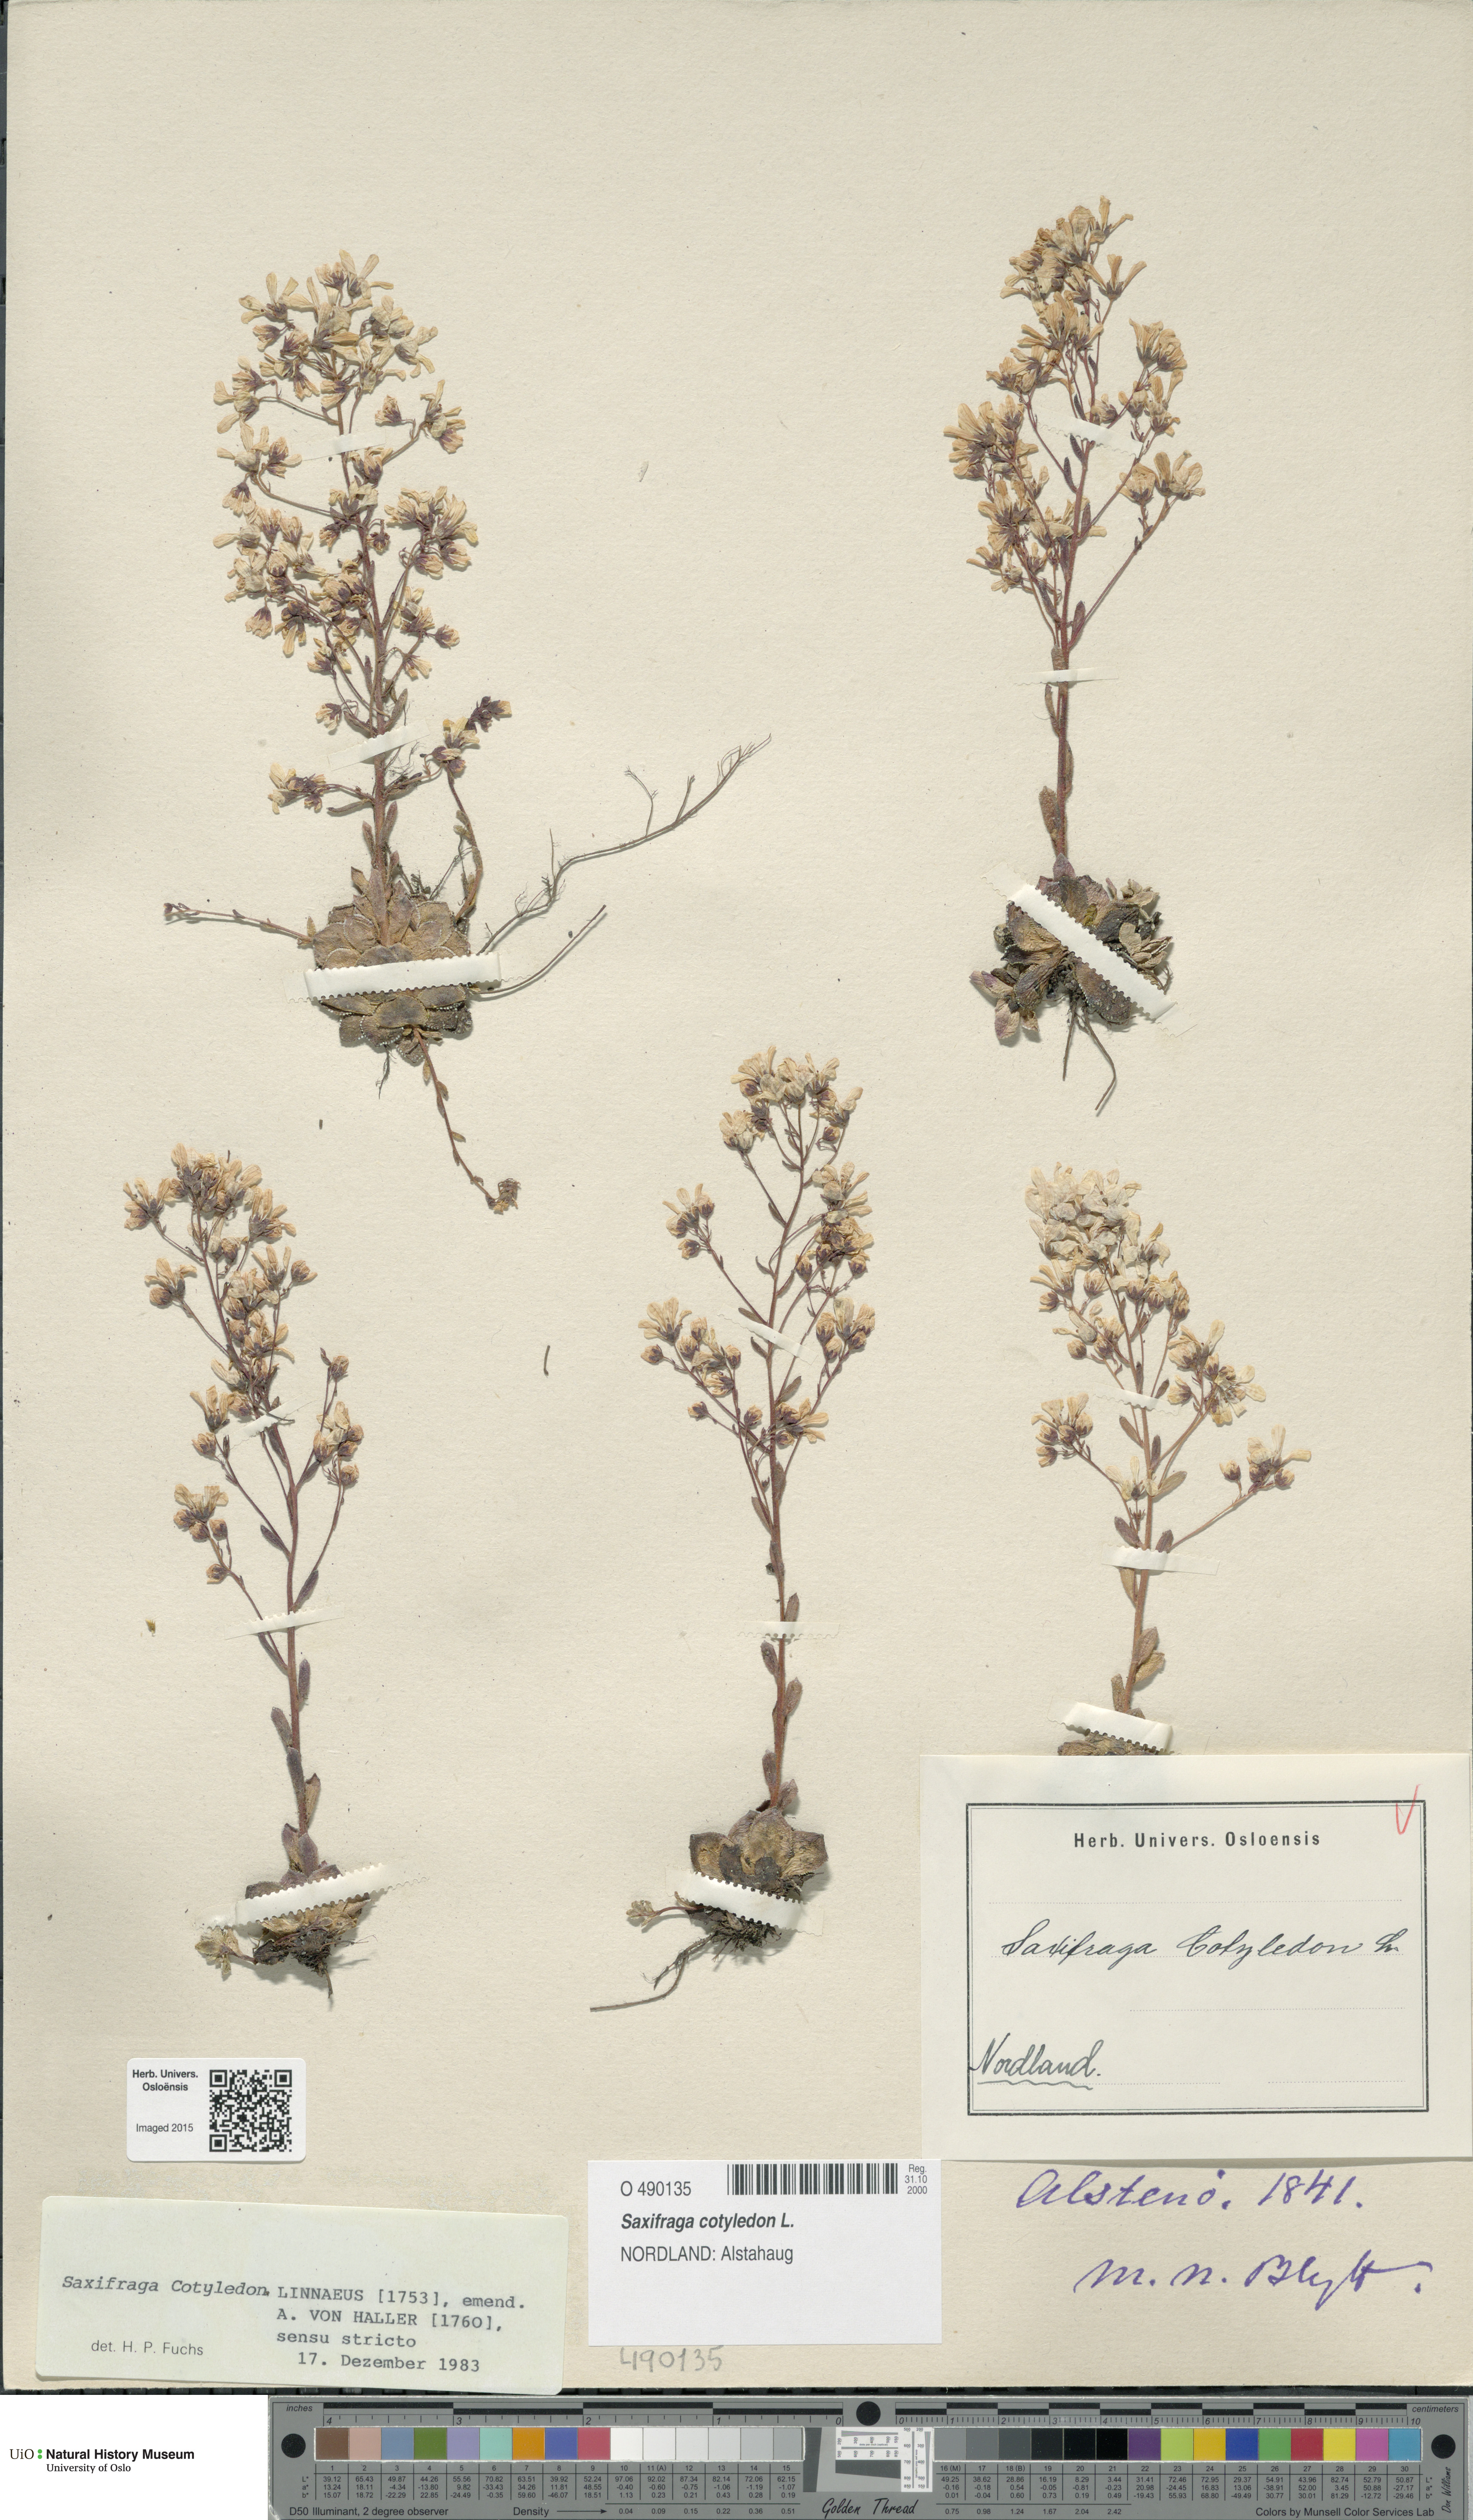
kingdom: Plantae
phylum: Tracheophyta
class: Magnoliopsida
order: Saxifragales
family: Saxifragaceae
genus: Saxifraga
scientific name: Saxifraga cotyledon
